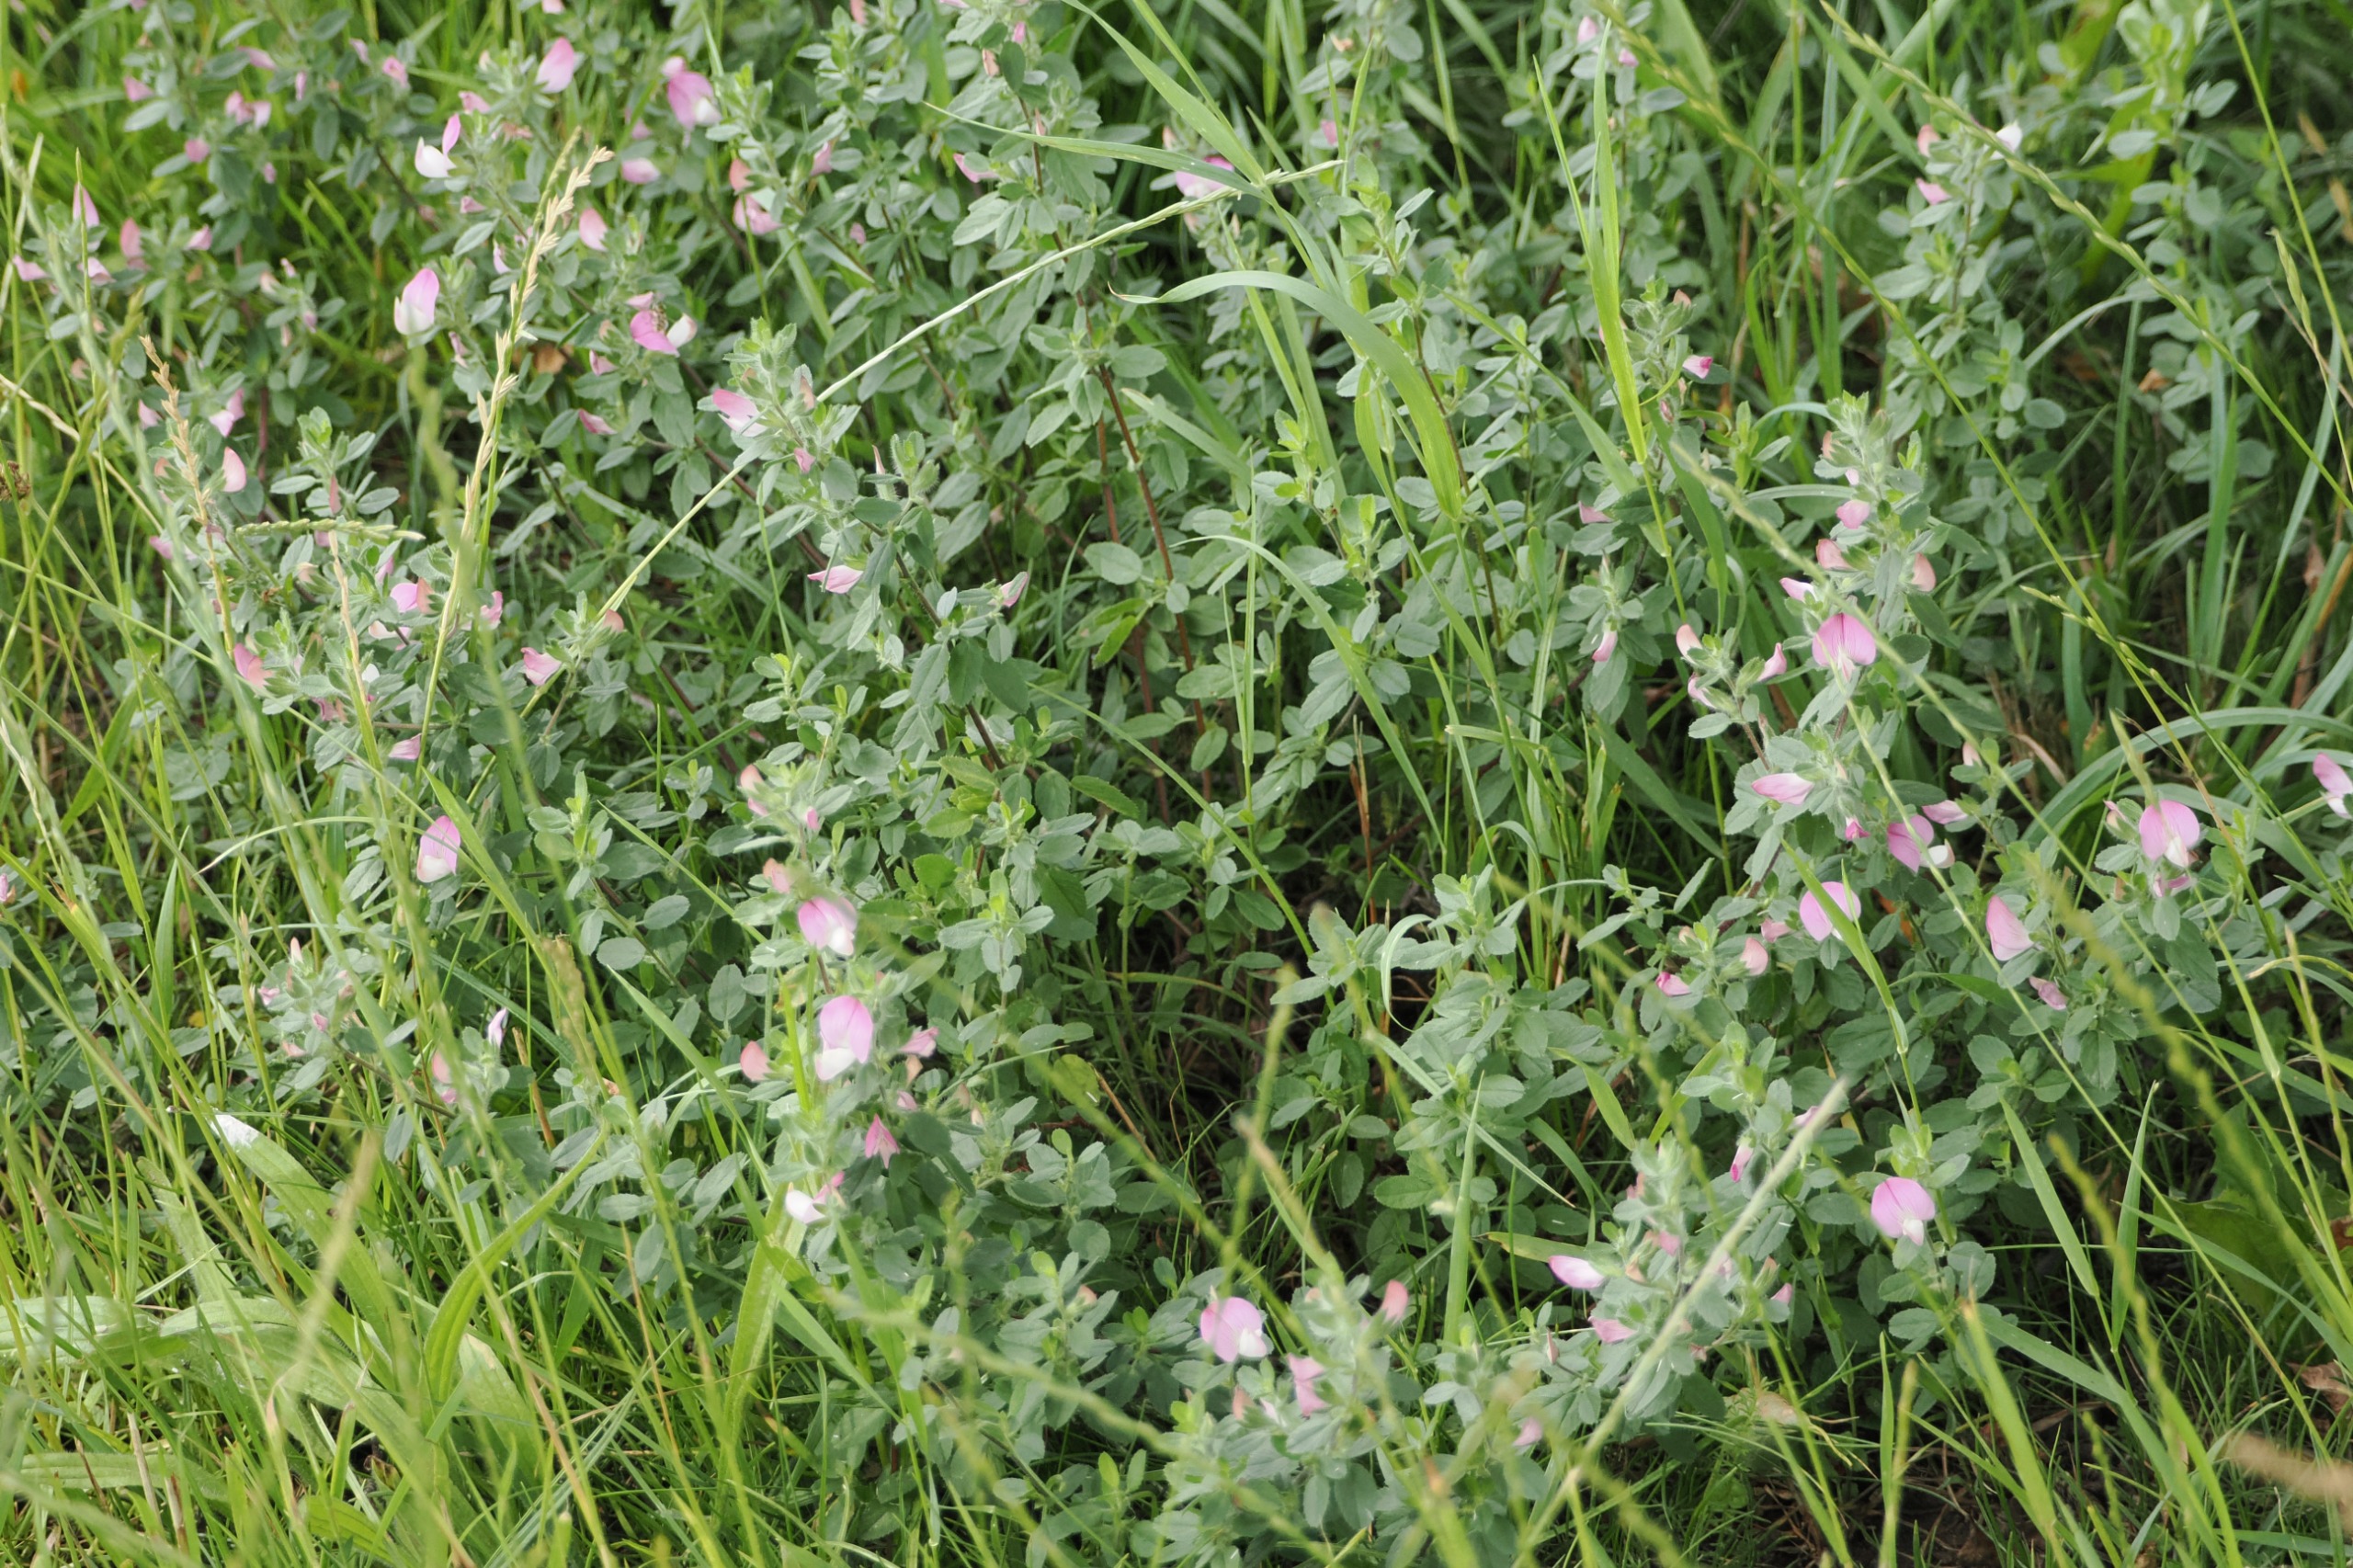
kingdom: Plantae
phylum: Tracheophyta
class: Magnoliopsida
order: Fabales
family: Fabaceae
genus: Ononis
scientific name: Ononis spinosa
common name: Mark-krageklo
